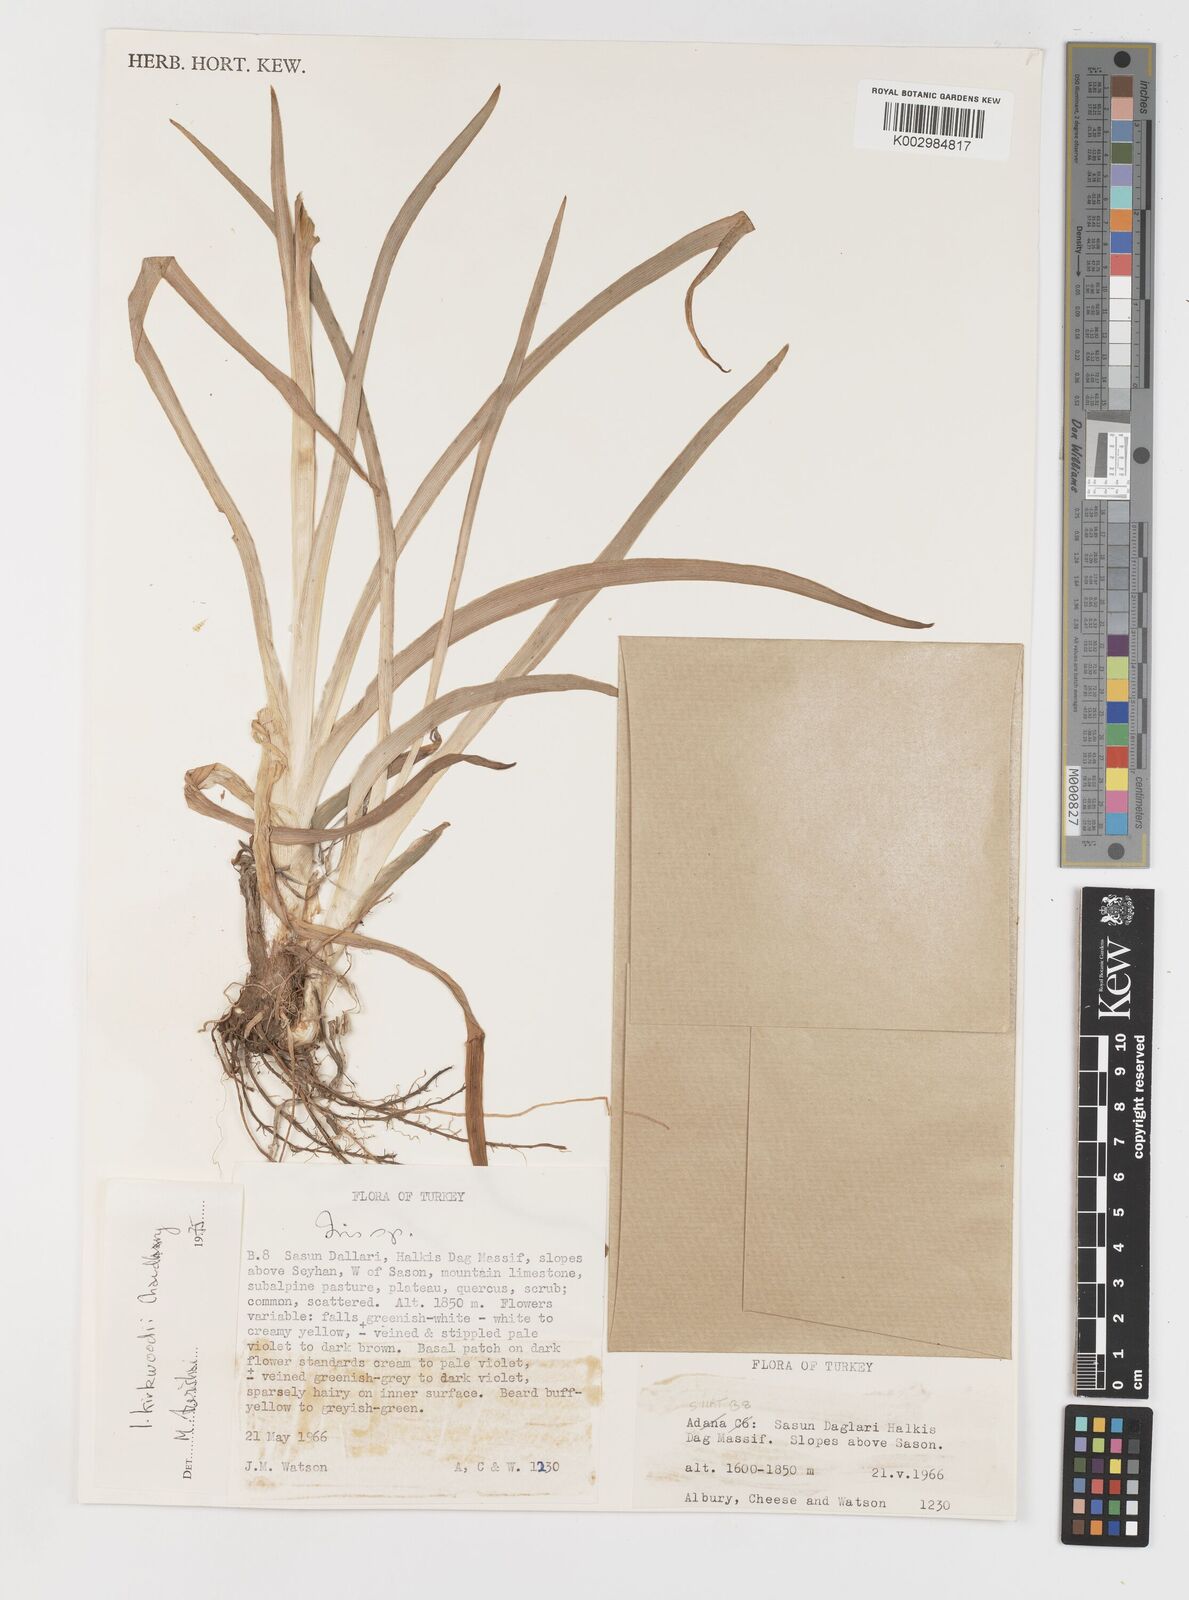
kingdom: Plantae
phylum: Tracheophyta
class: Liliopsida
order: Asparagales
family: Iridaceae
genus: Iris
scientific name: Iris gatesii
